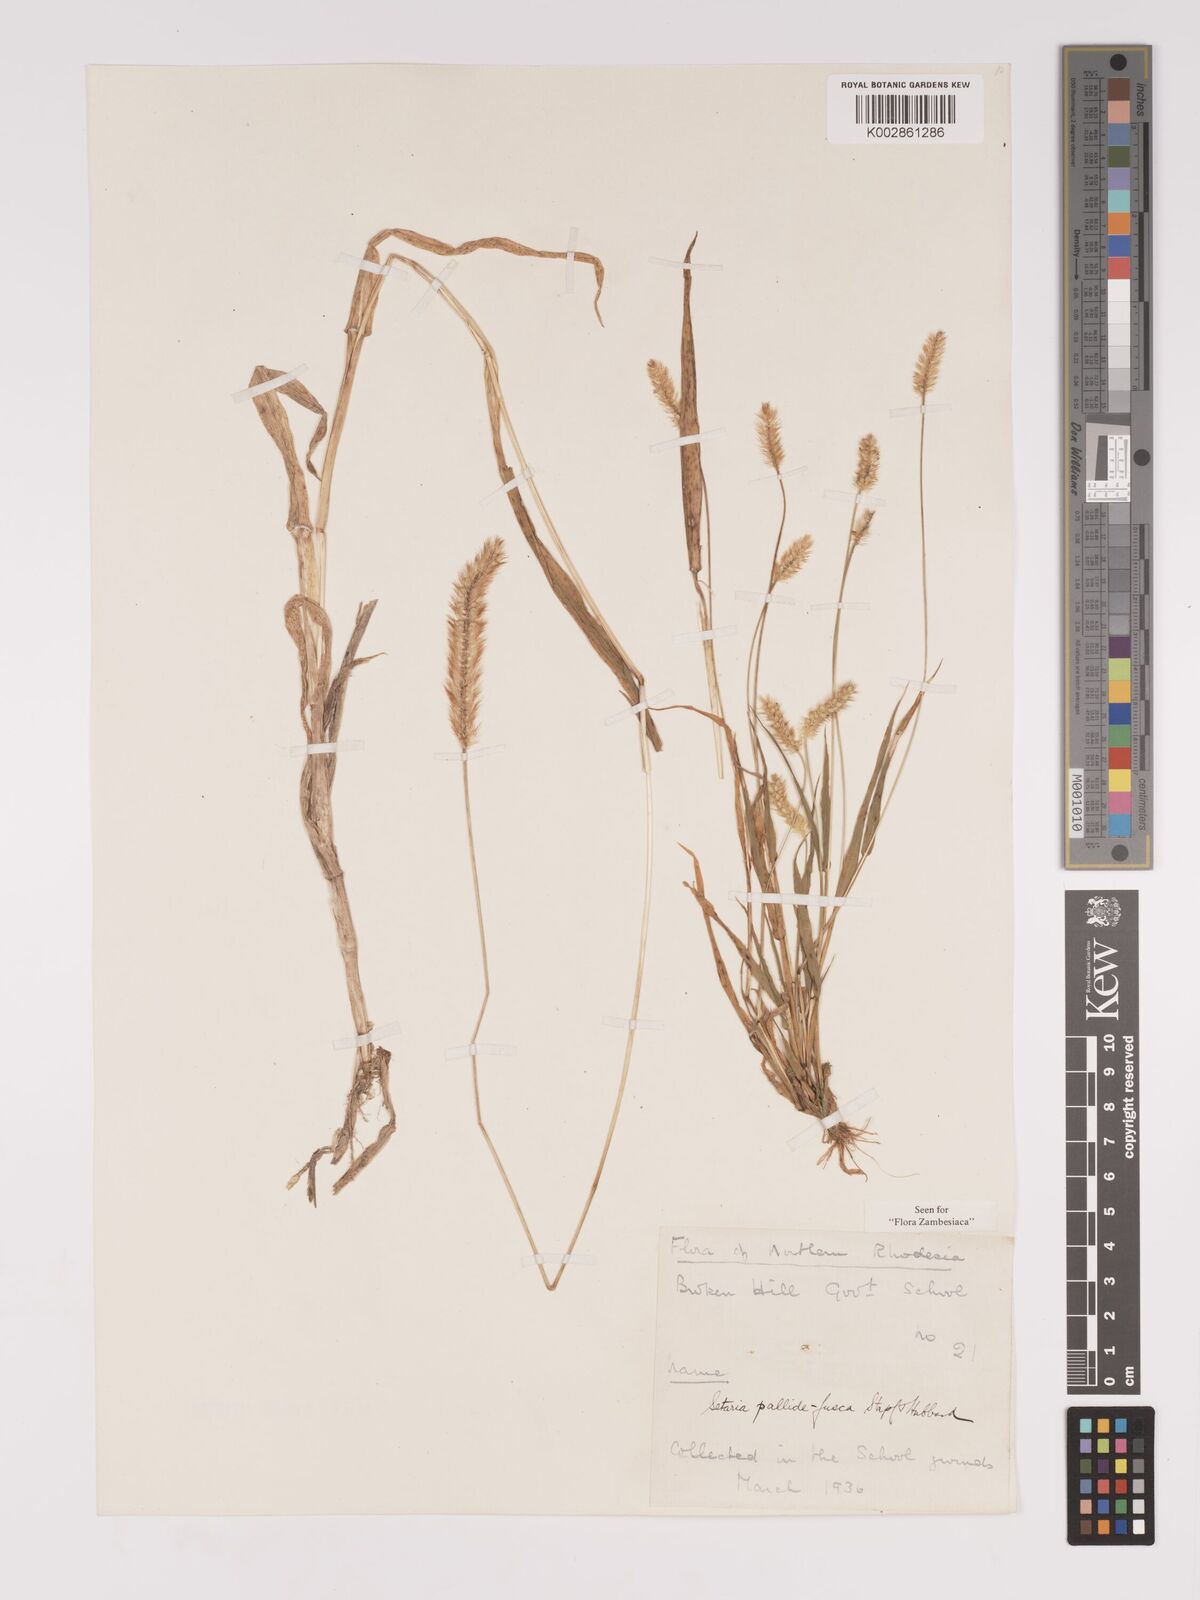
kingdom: Plantae
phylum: Tracheophyta
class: Liliopsida
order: Poales
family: Poaceae
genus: Setaria
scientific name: Setaria pumila
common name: Yellow bristle-grass
